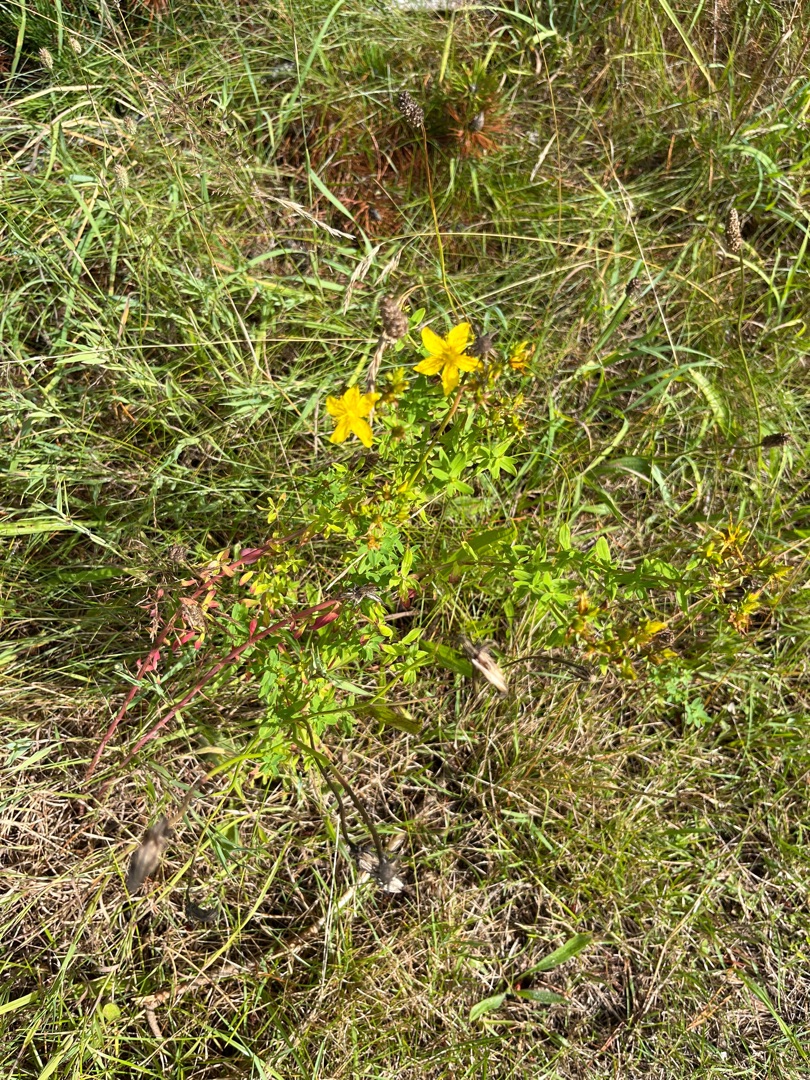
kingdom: Plantae
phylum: Tracheophyta
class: Magnoliopsida
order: Malpighiales
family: Hypericaceae
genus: Hypericum
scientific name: Hypericum perforatum
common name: Prikbladet perikon
